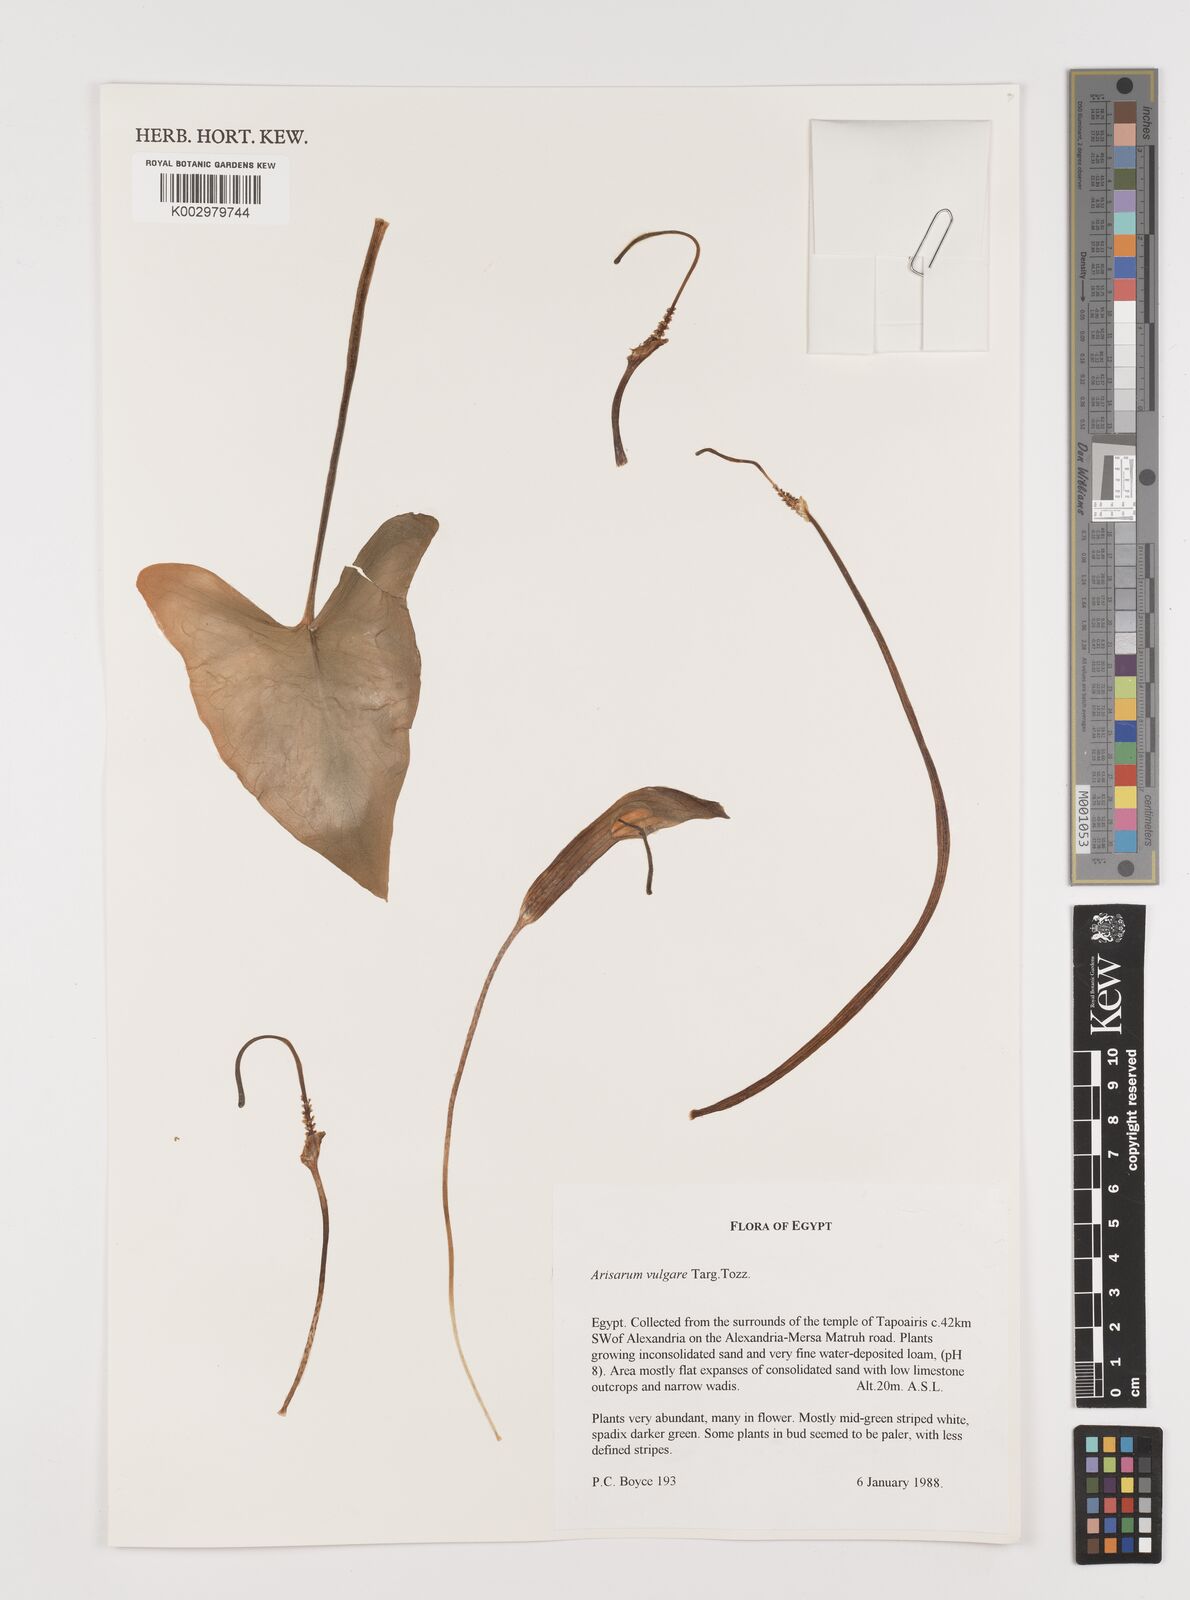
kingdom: Plantae
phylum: Tracheophyta
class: Liliopsida
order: Alismatales
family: Araceae
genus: Arisarum
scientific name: Arisarum vulgare
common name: Common arisarum
